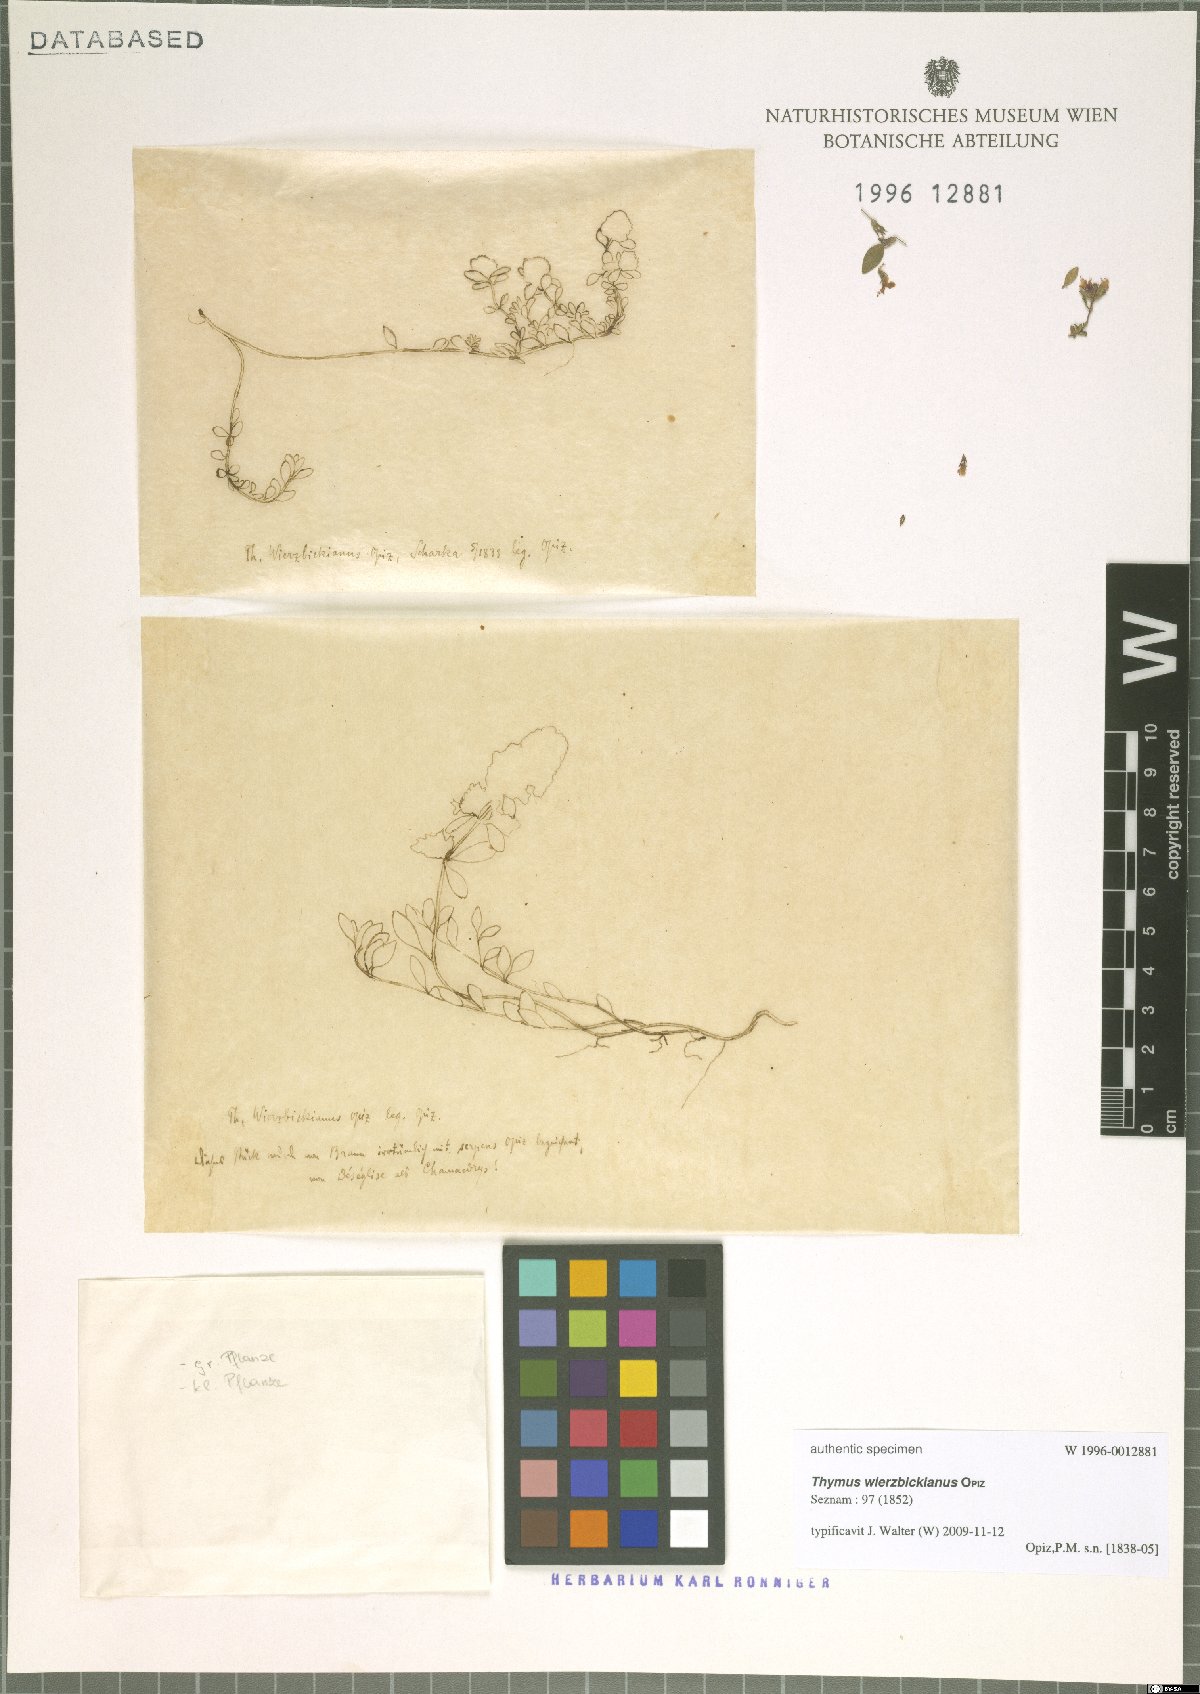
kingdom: Plantae
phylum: Tracheophyta
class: Magnoliopsida
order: Lamiales
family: Lamiaceae
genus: Thymus
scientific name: Thymus serpyllum
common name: Breckland thyme
